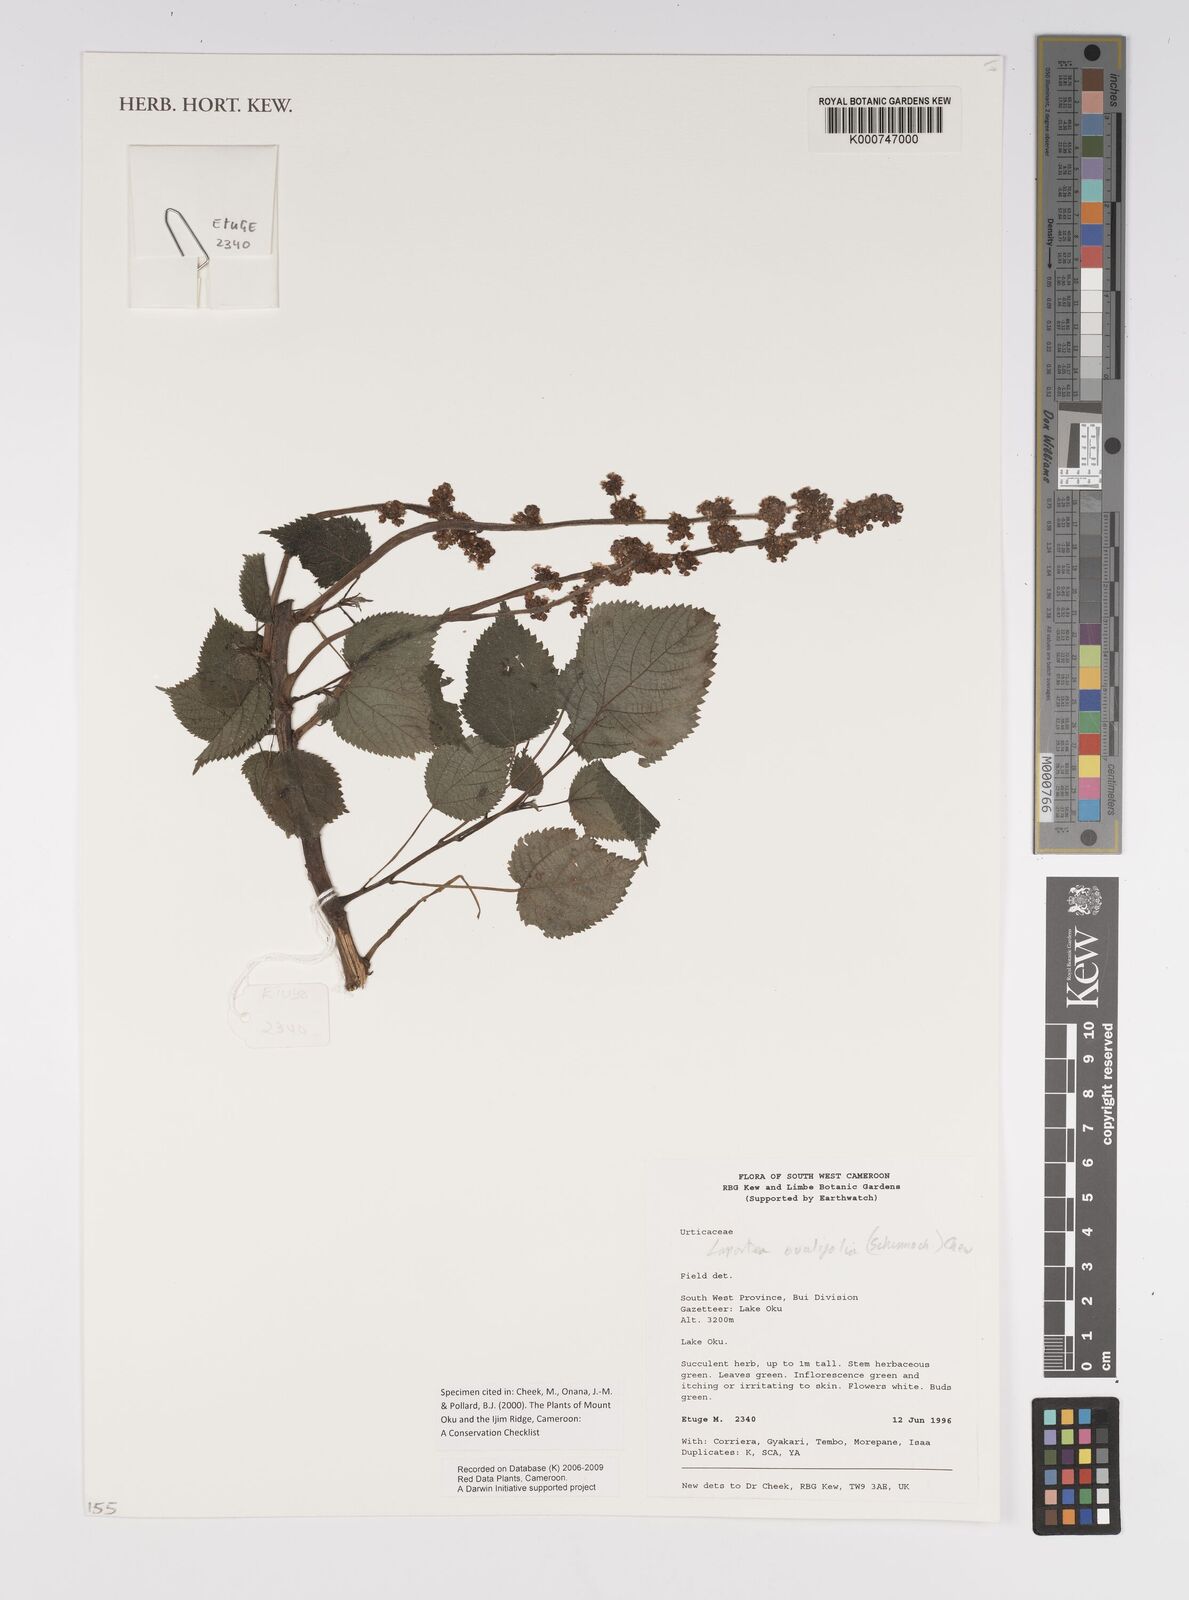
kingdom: Plantae
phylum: Tracheophyta
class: Magnoliopsida
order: Rosales
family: Urticaceae
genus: Laportea
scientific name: Laportea ovalifolia
